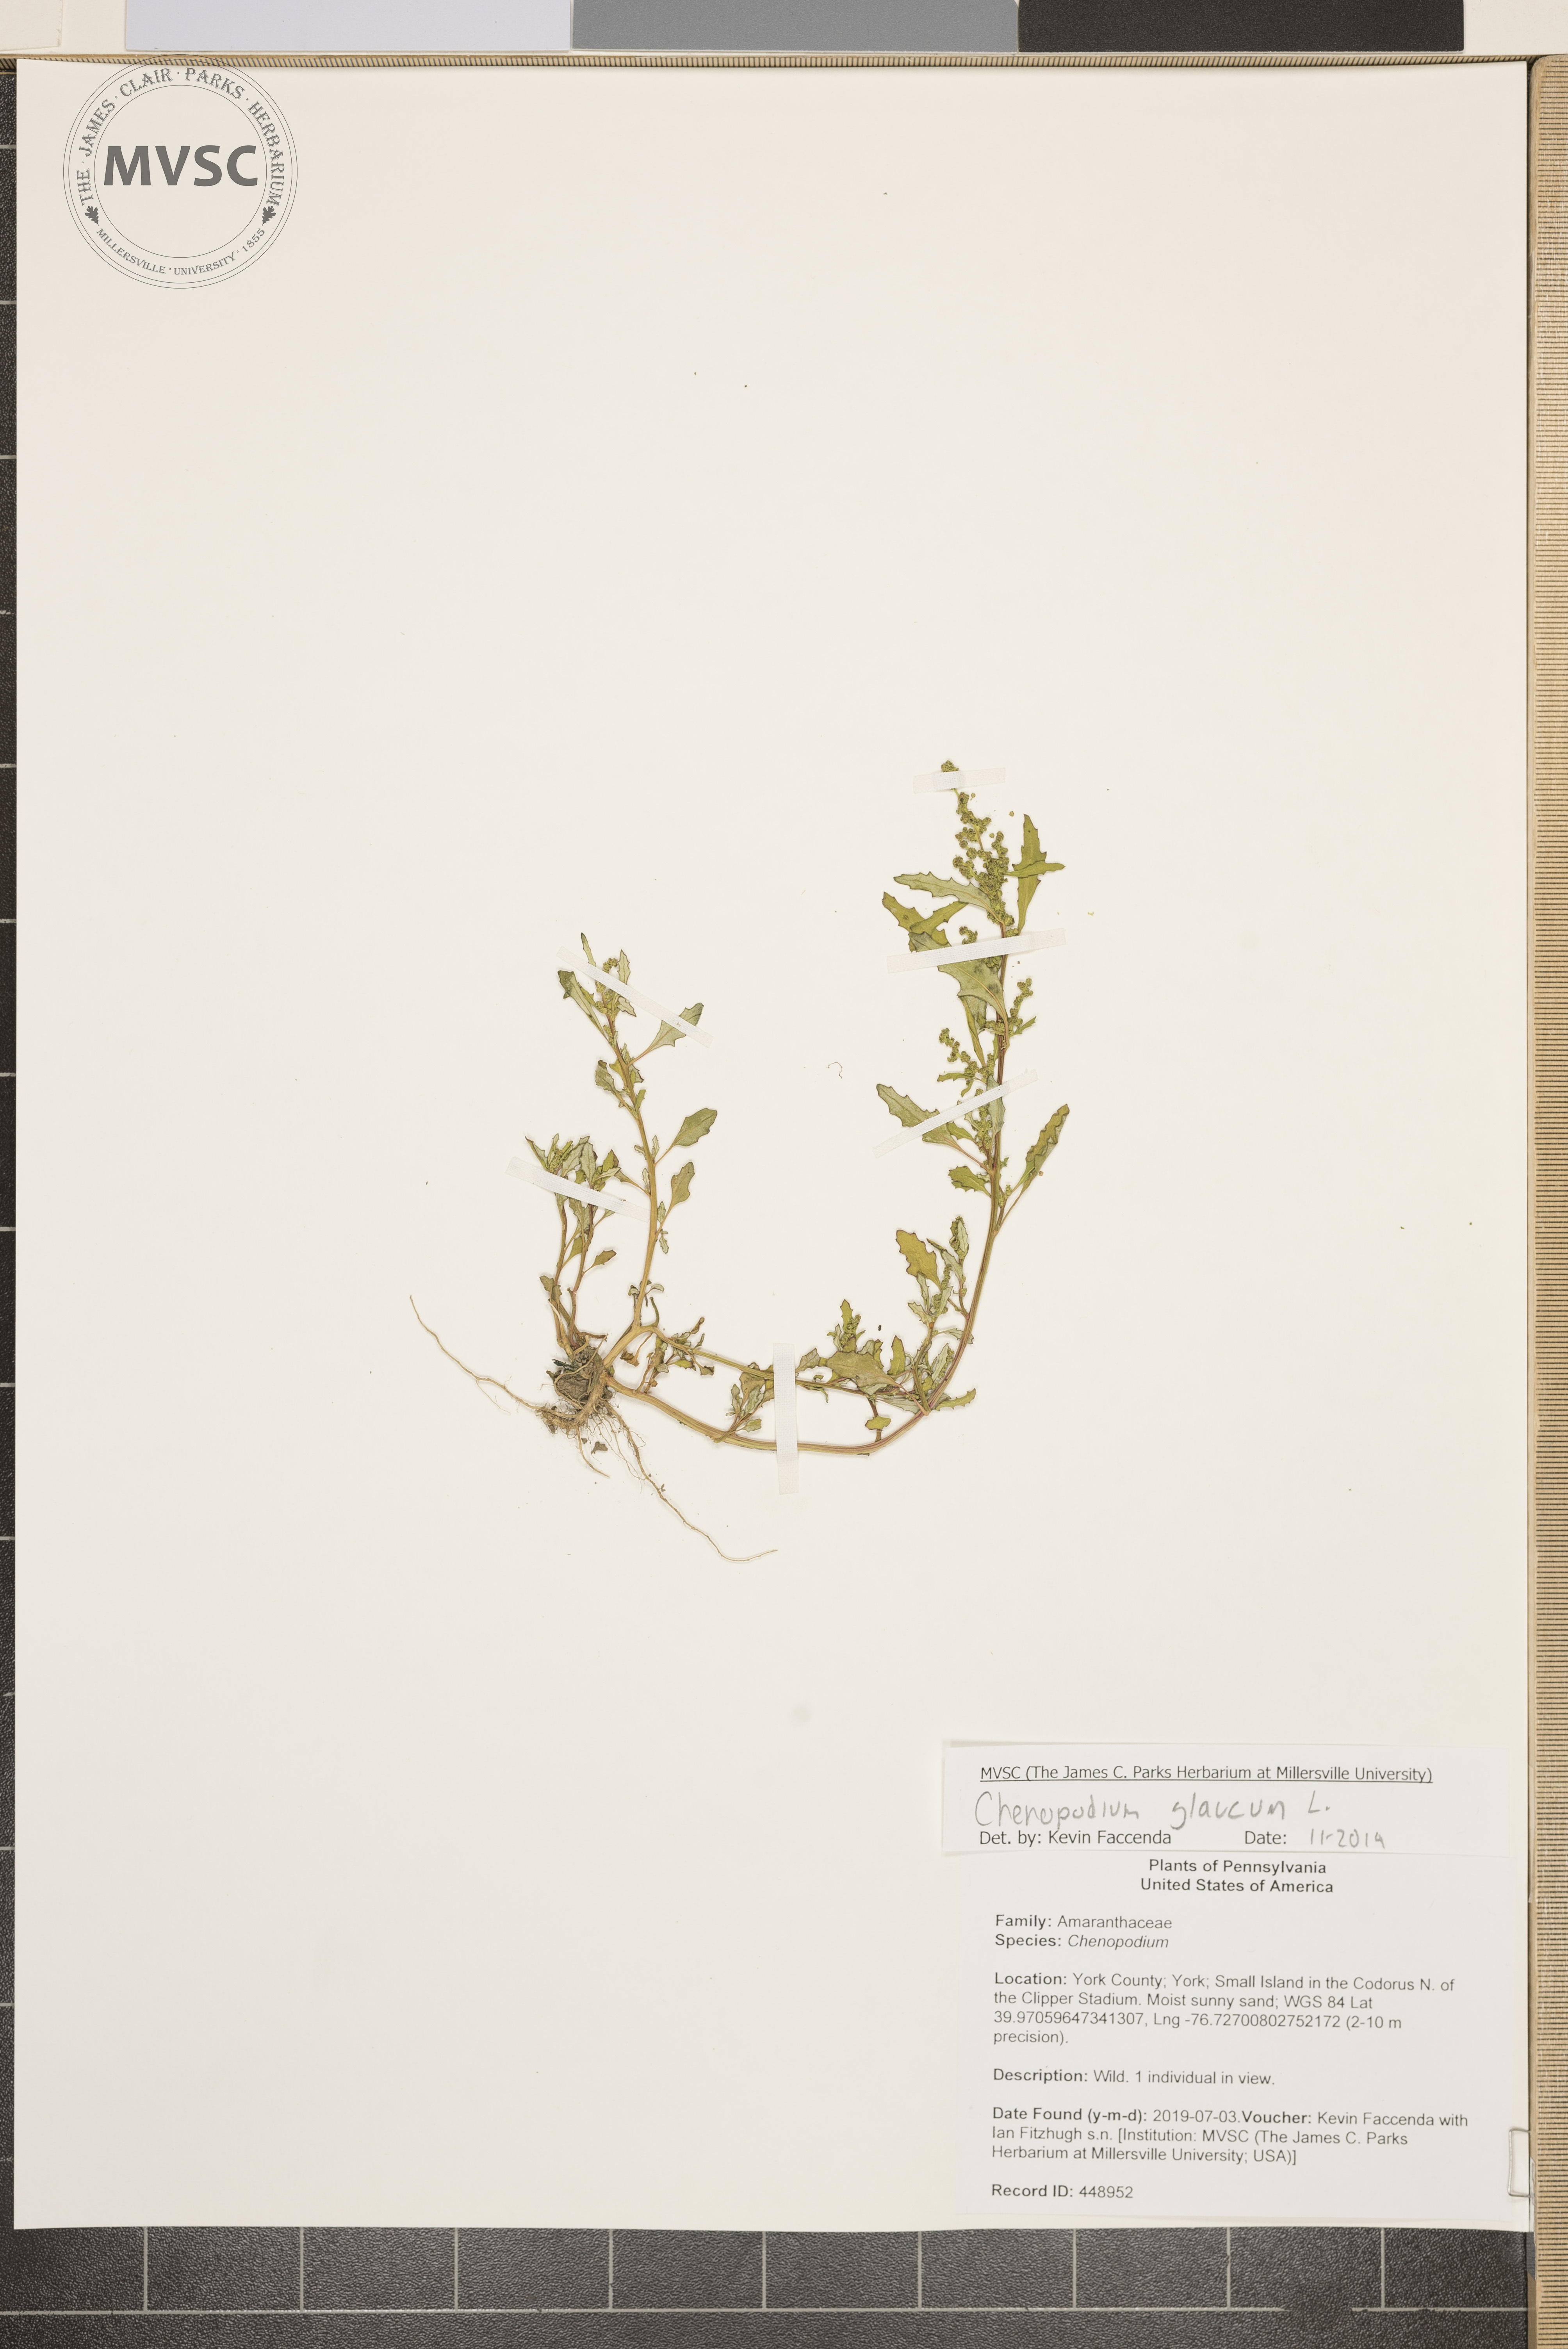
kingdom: Plantae
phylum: Tracheophyta
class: Magnoliopsida
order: Caryophyllales
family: Amaranthaceae
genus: Oxybasis
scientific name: Oxybasis glauca
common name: Glaucous goosefoot
